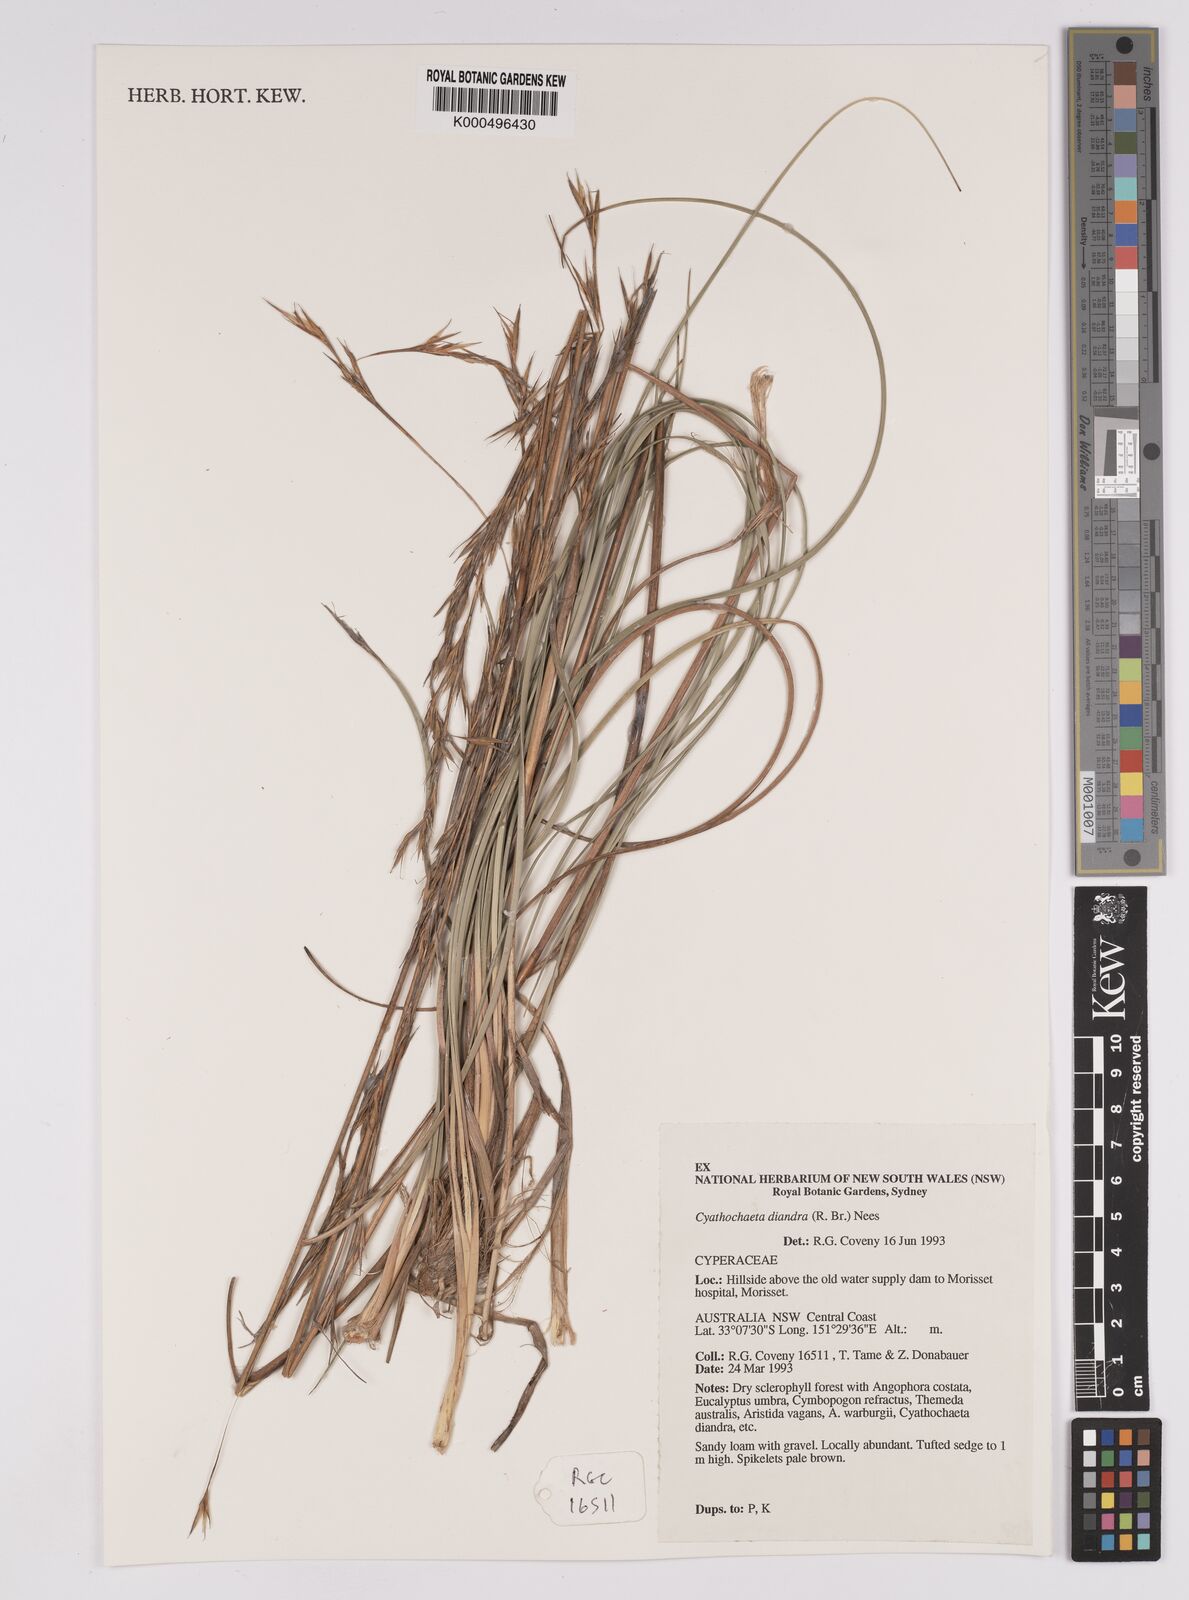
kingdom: Plantae
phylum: Tracheophyta
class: Liliopsida
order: Poales
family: Cyperaceae
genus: Cyathochaeta
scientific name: Cyathochaeta diandra
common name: Sheath rush
